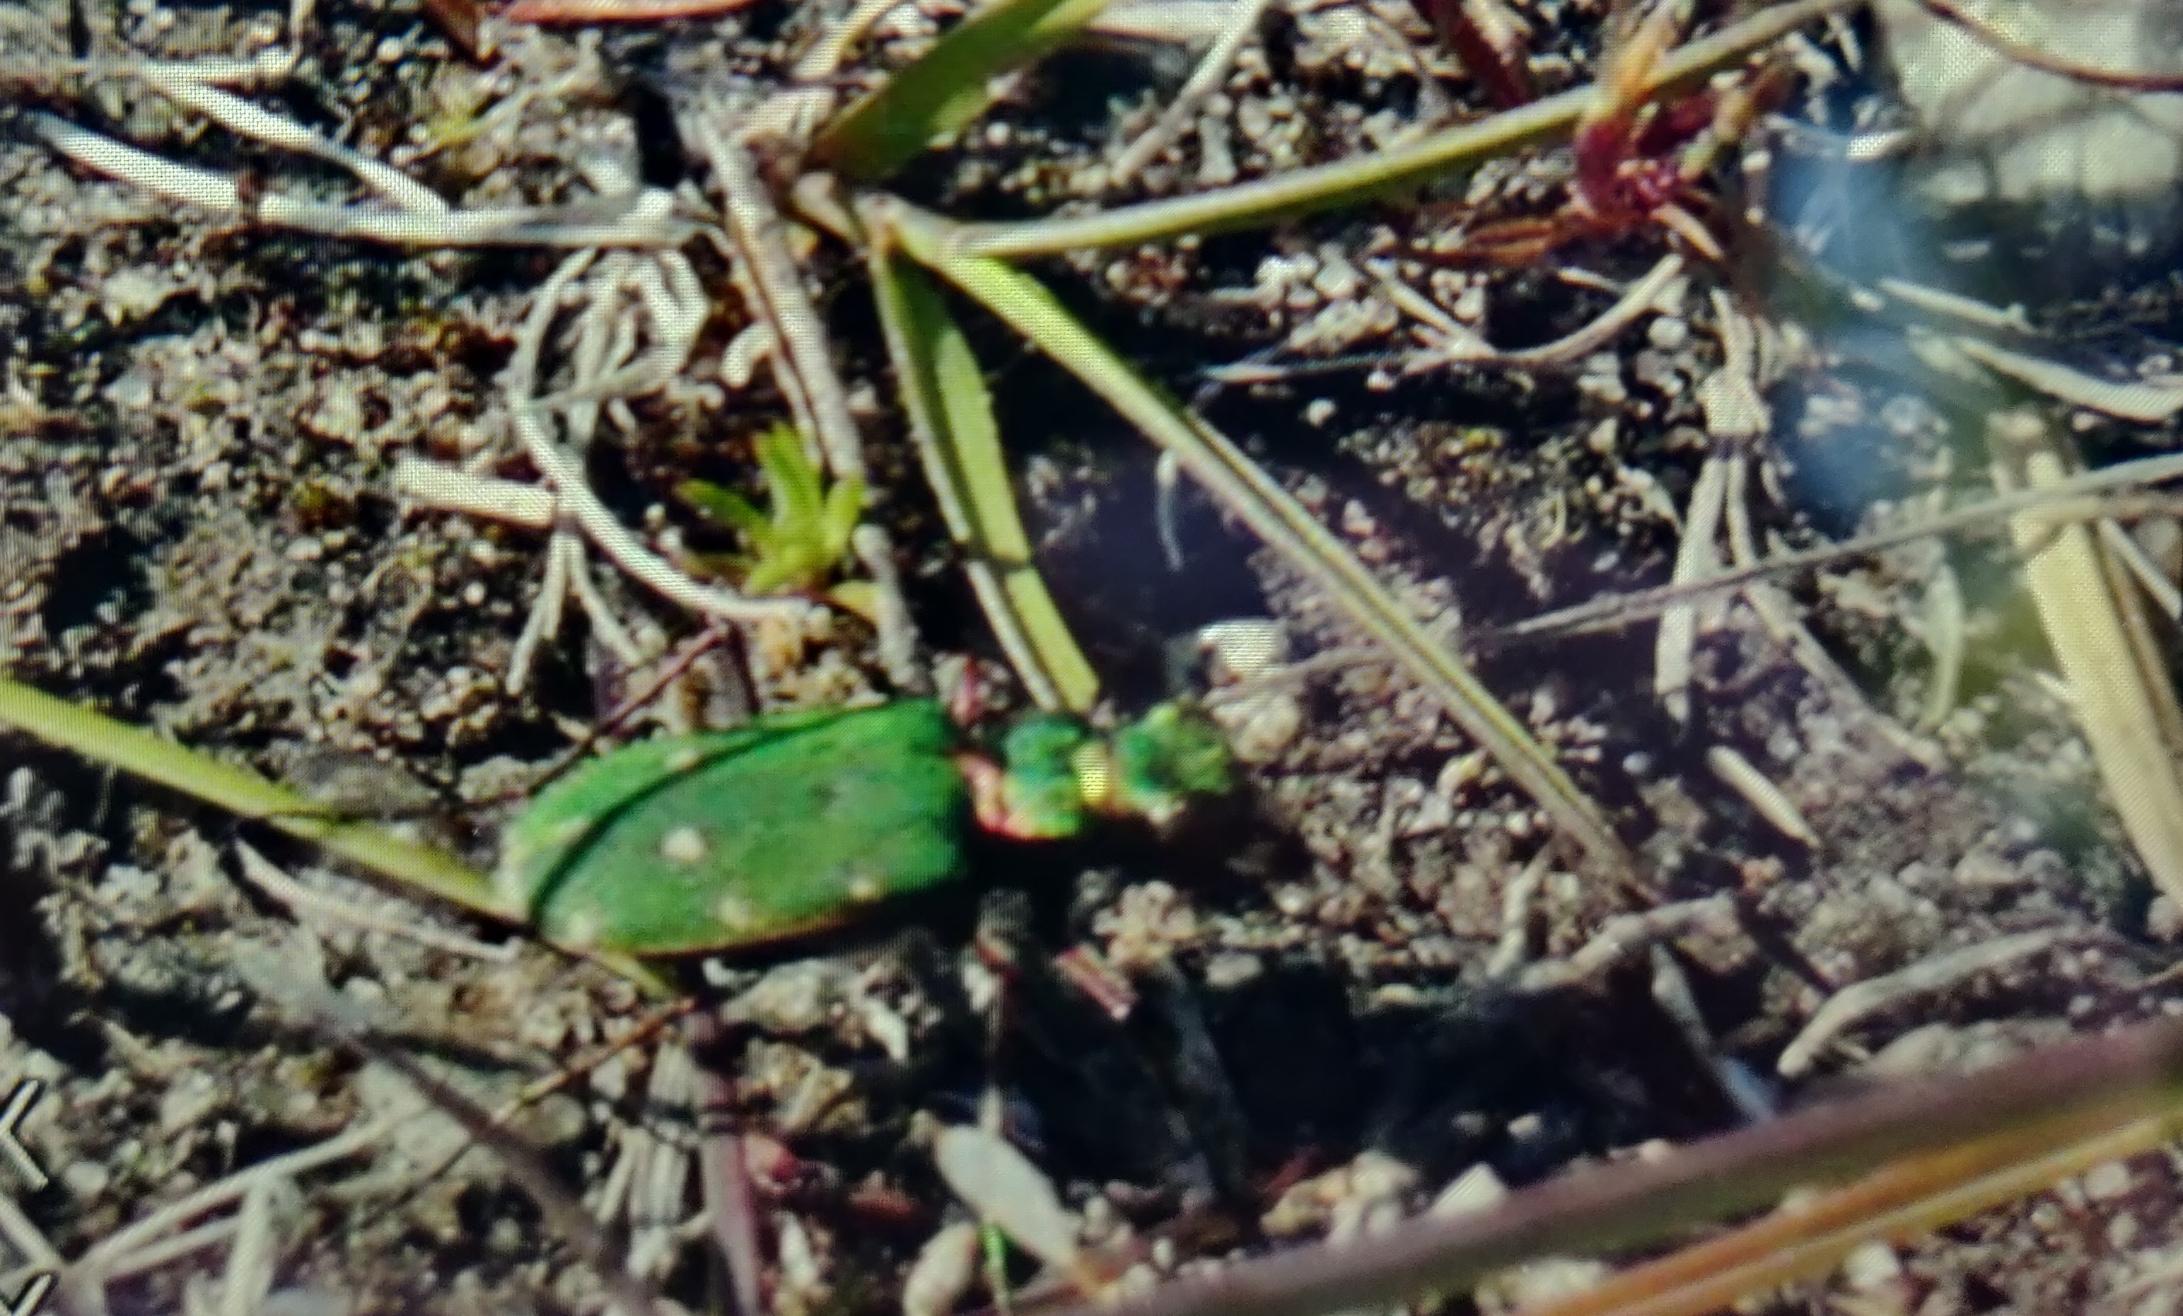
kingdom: Animalia
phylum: Arthropoda
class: Insecta
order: Coleoptera
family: Carabidae
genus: Cicindela
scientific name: Cicindela campestris
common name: Grøn sandspringer
